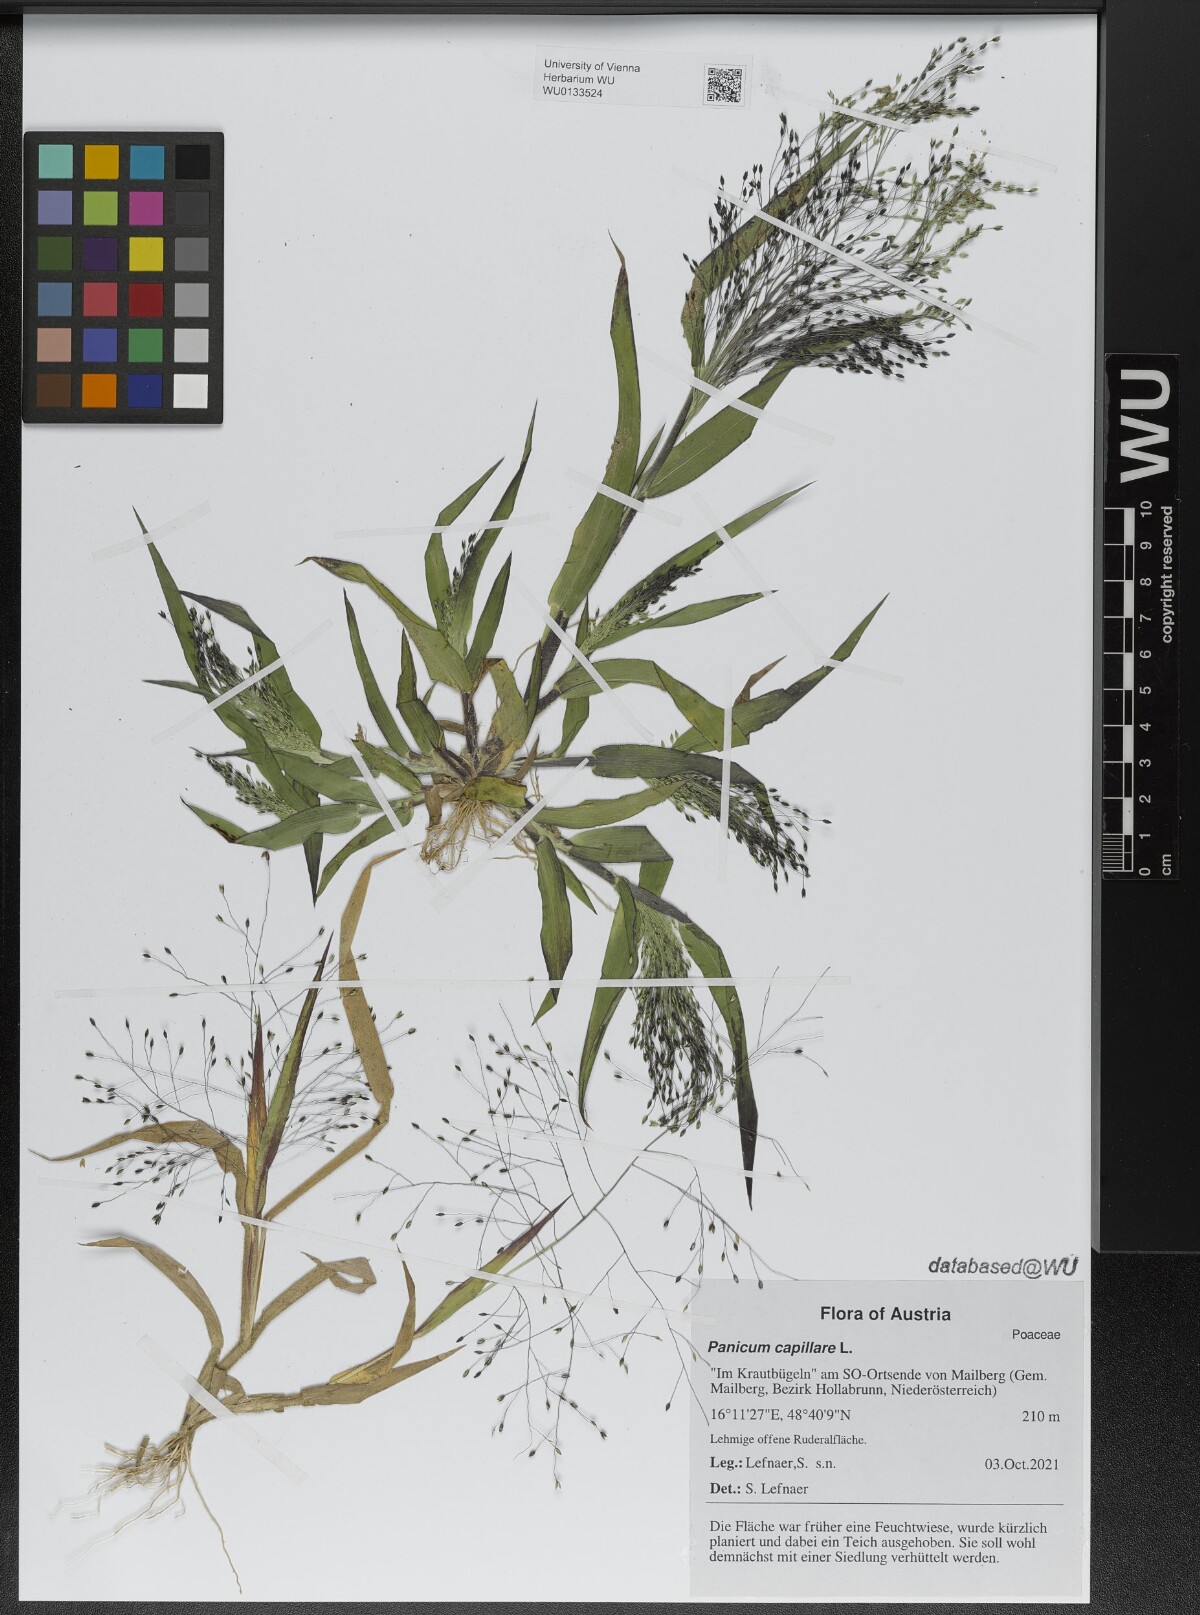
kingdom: Plantae
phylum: Tracheophyta
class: Liliopsida
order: Poales
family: Poaceae
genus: Panicum
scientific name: Panicum capillare
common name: Witch-grass
